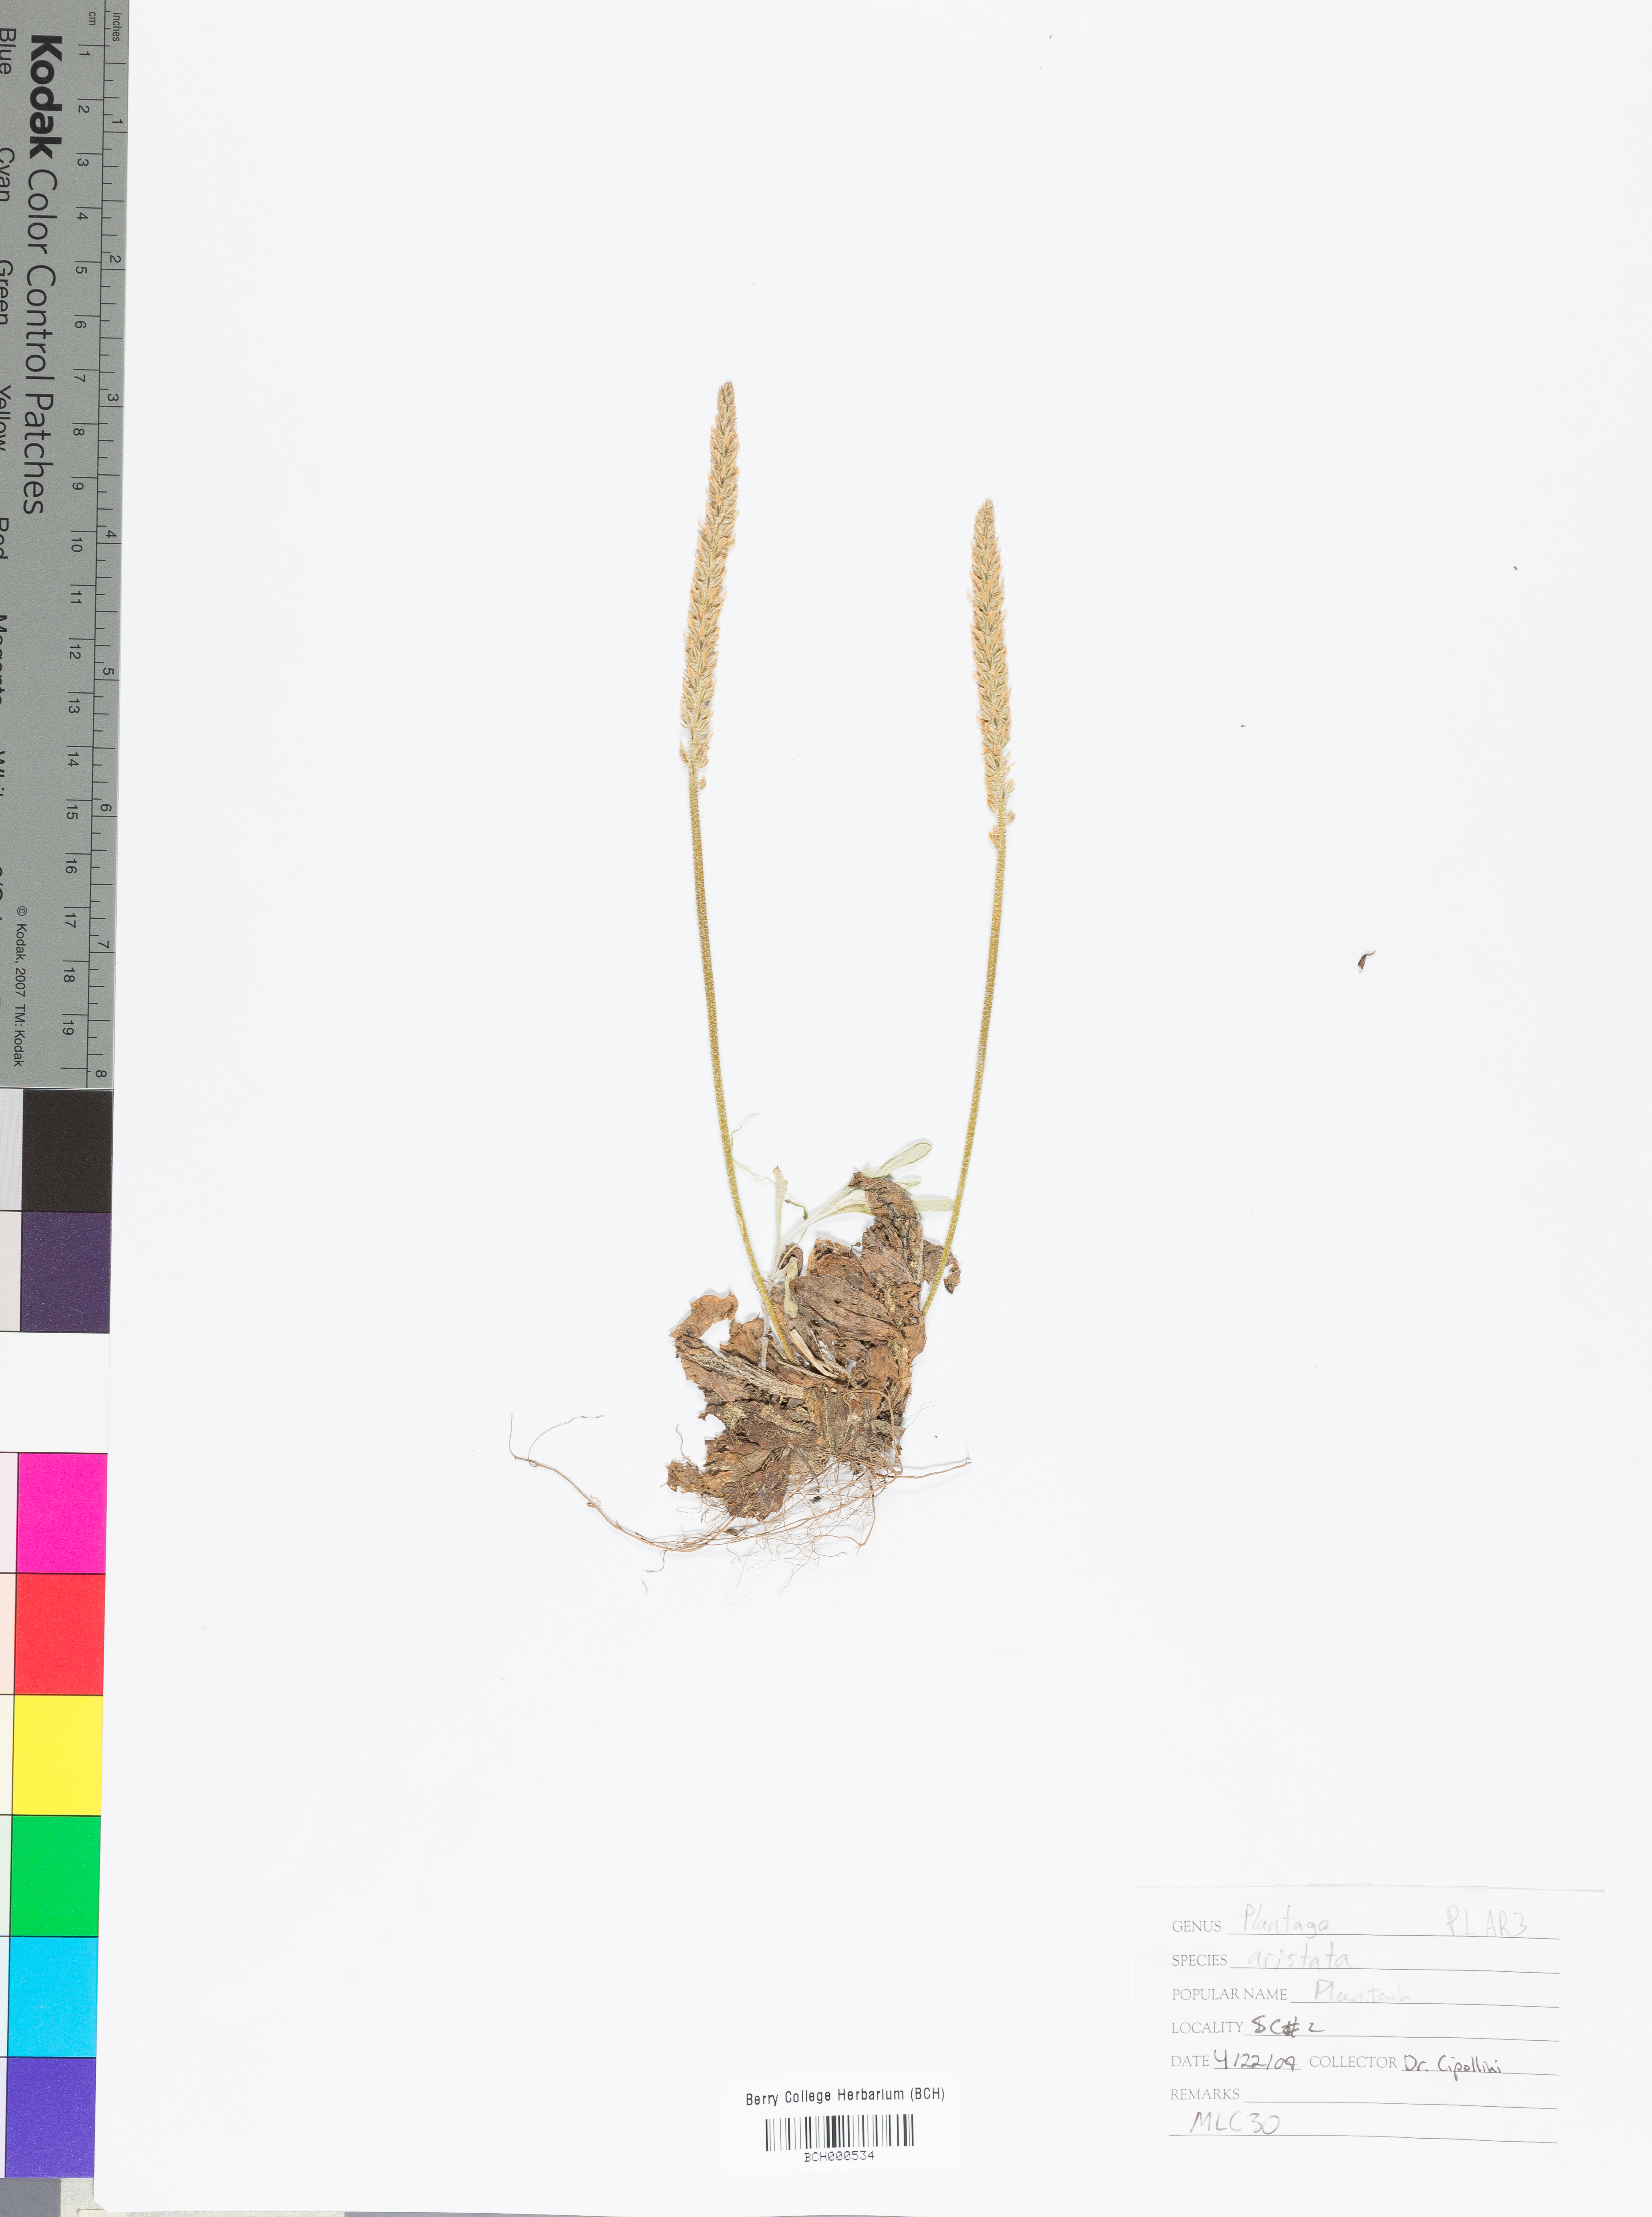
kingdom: Plantae
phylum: Tracheophyta
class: Magnoliopsida
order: Lamiales
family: Plantaginaceae
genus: Plantago
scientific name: Plantago aristata
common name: Bracted plantain
